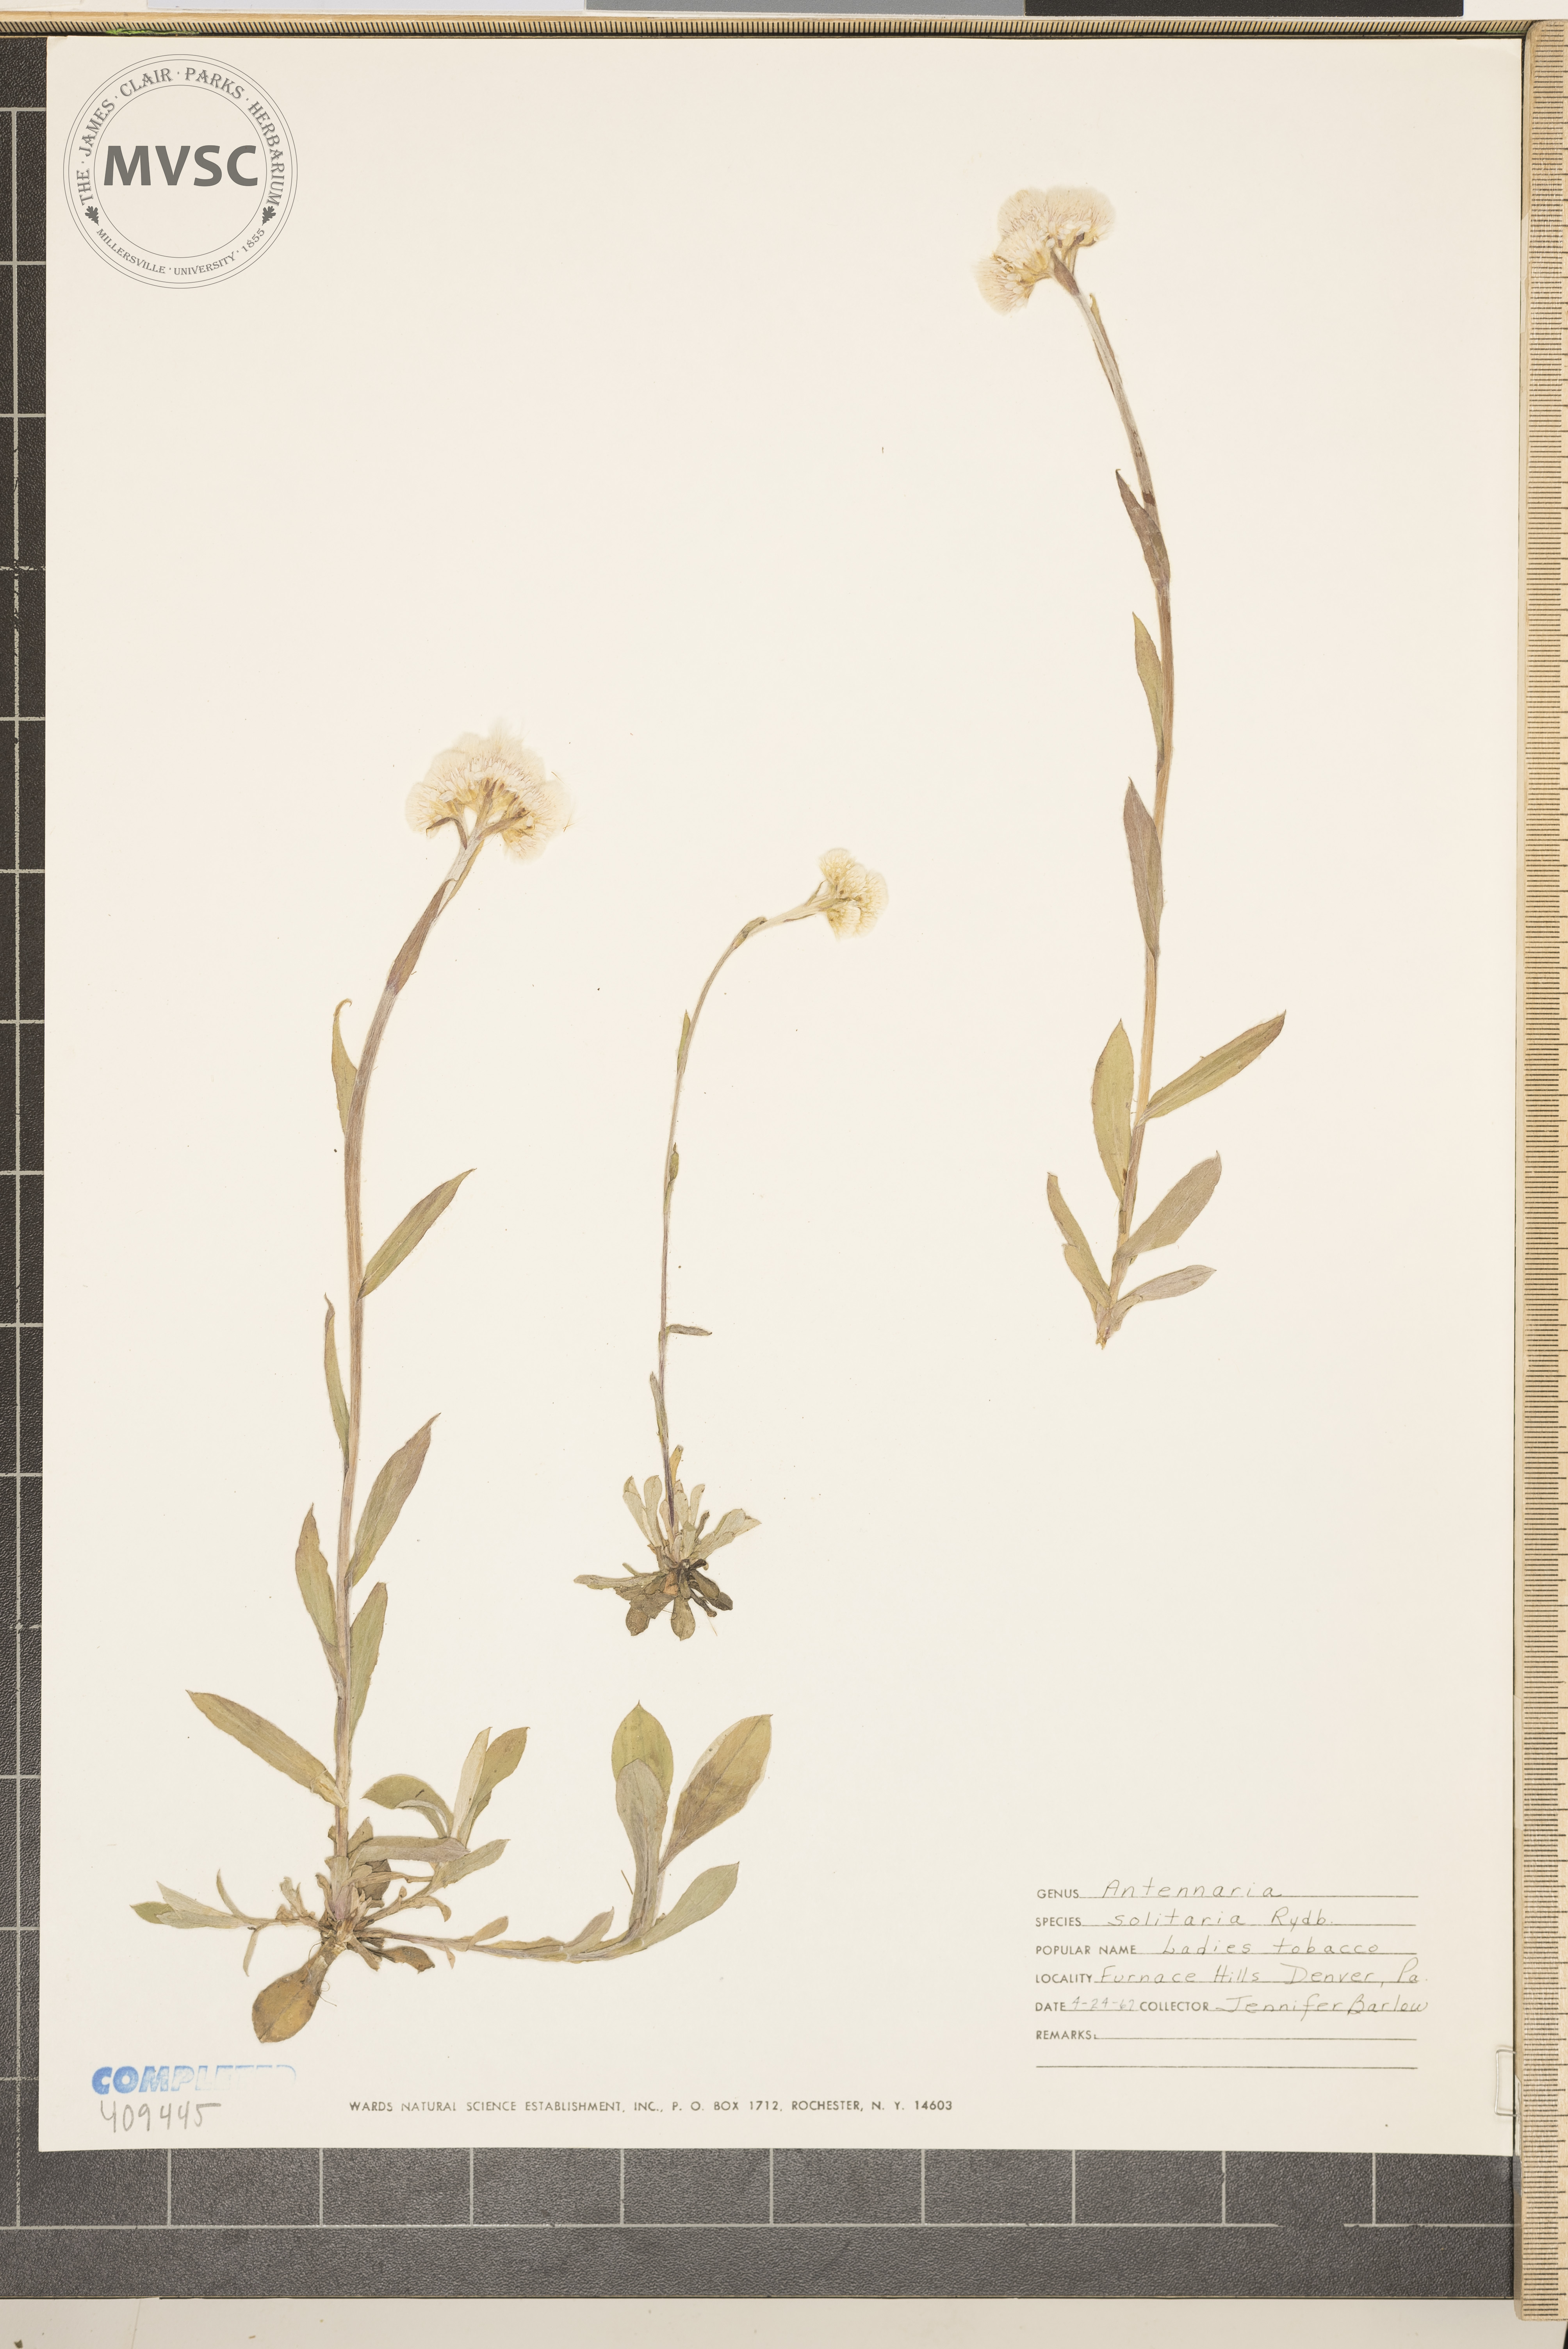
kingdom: Plantae
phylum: Tracheophyta
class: Magnoliopsida
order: Asterales
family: Asteraceae
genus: Antennaria
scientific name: Antennaria howellii
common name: Howell's pussytoes
